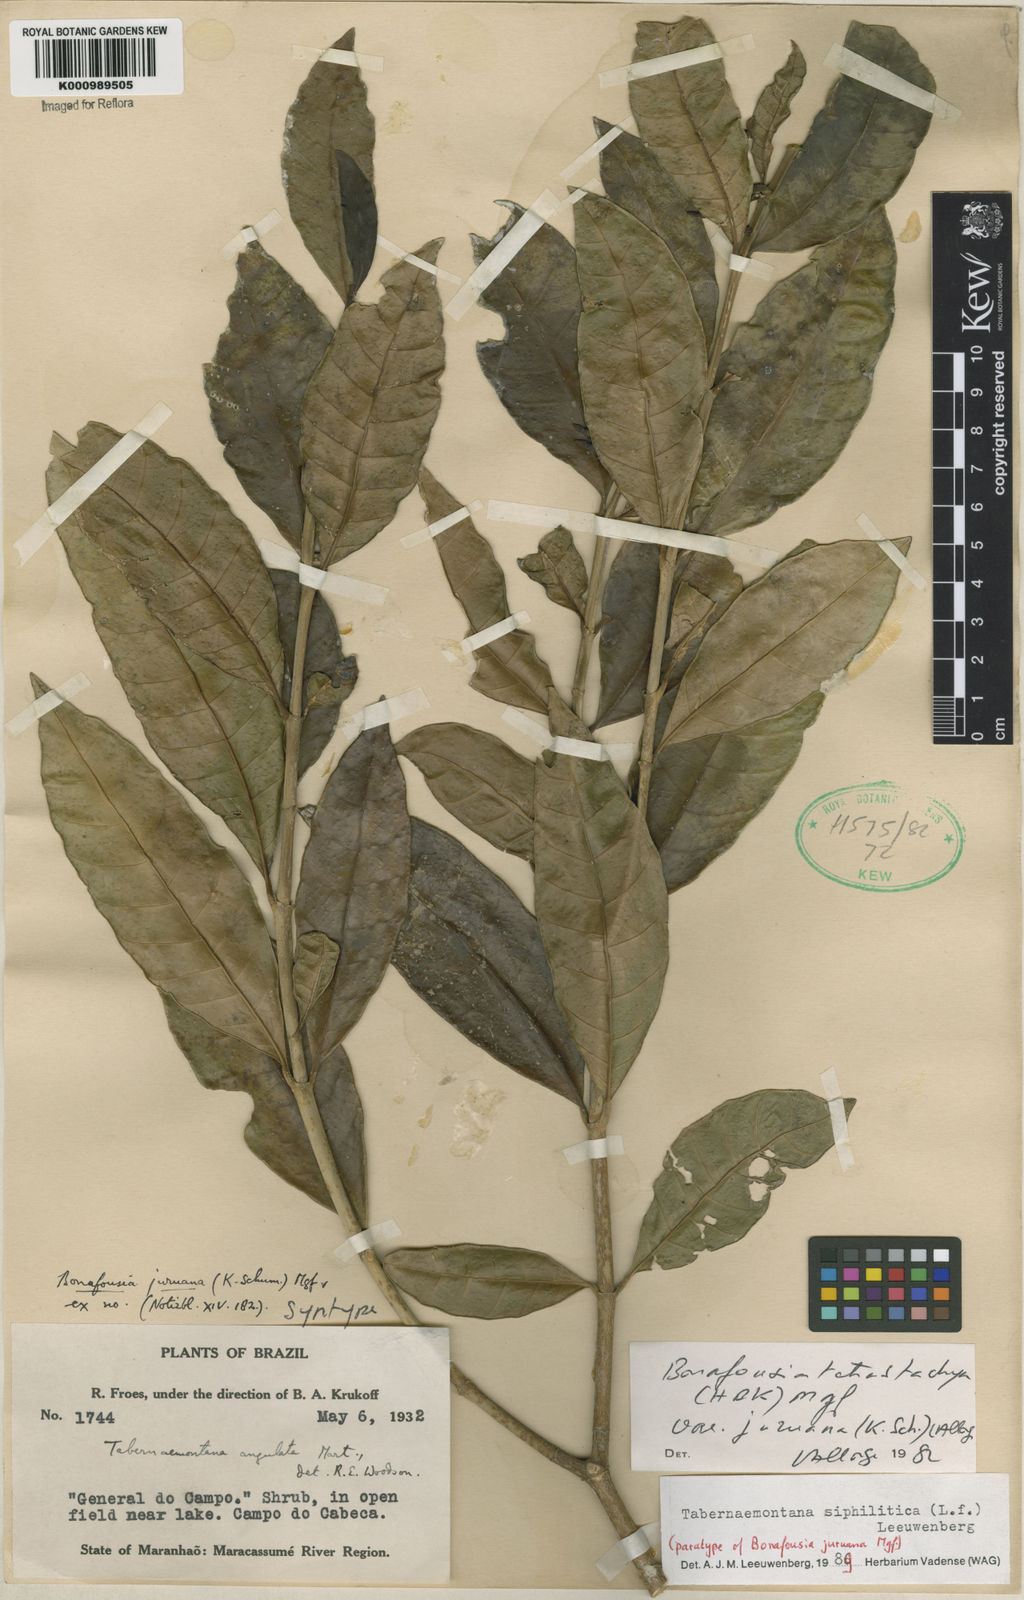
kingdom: Plantae
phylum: Tracheophyta
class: Magnoliopsida
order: Gentianales
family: Apocynaceae
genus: Tabernaemontana
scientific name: Tabernaemontana siphilitica
